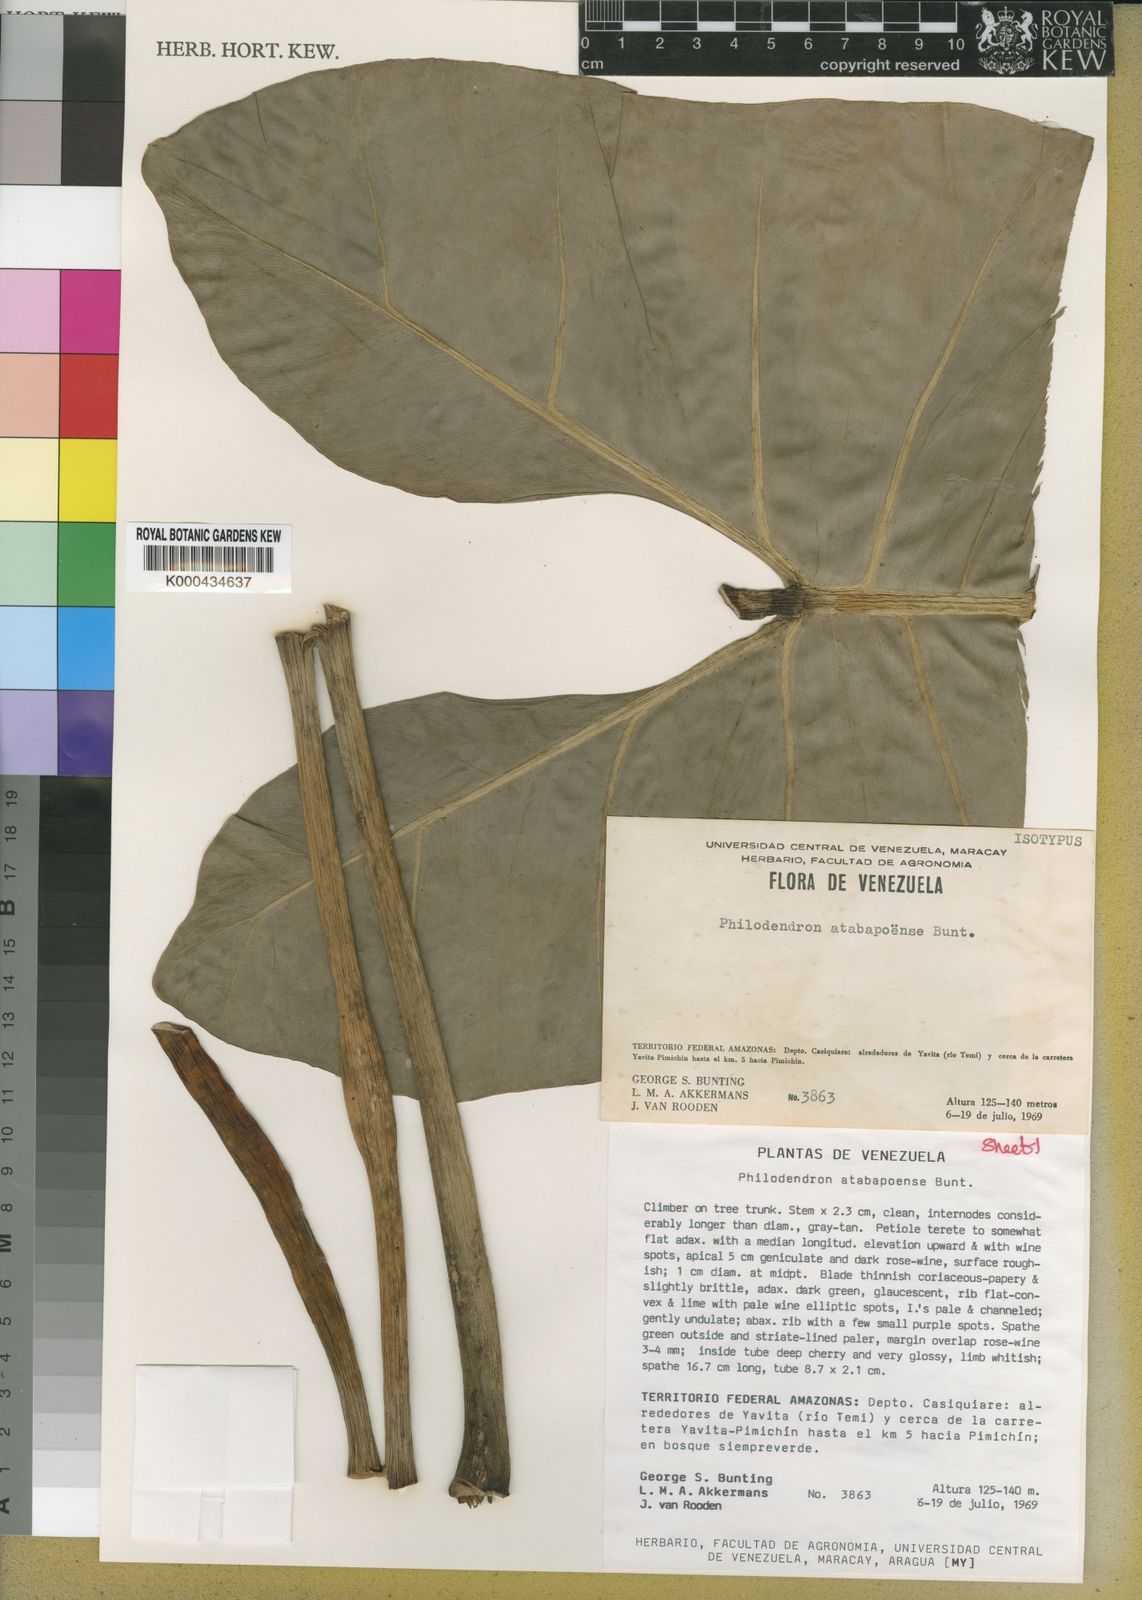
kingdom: Plantae
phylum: Tracheophyta
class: Liliopsida
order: Alismatales
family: Araceae
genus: Philodendron
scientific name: Philodendron atabapoense
